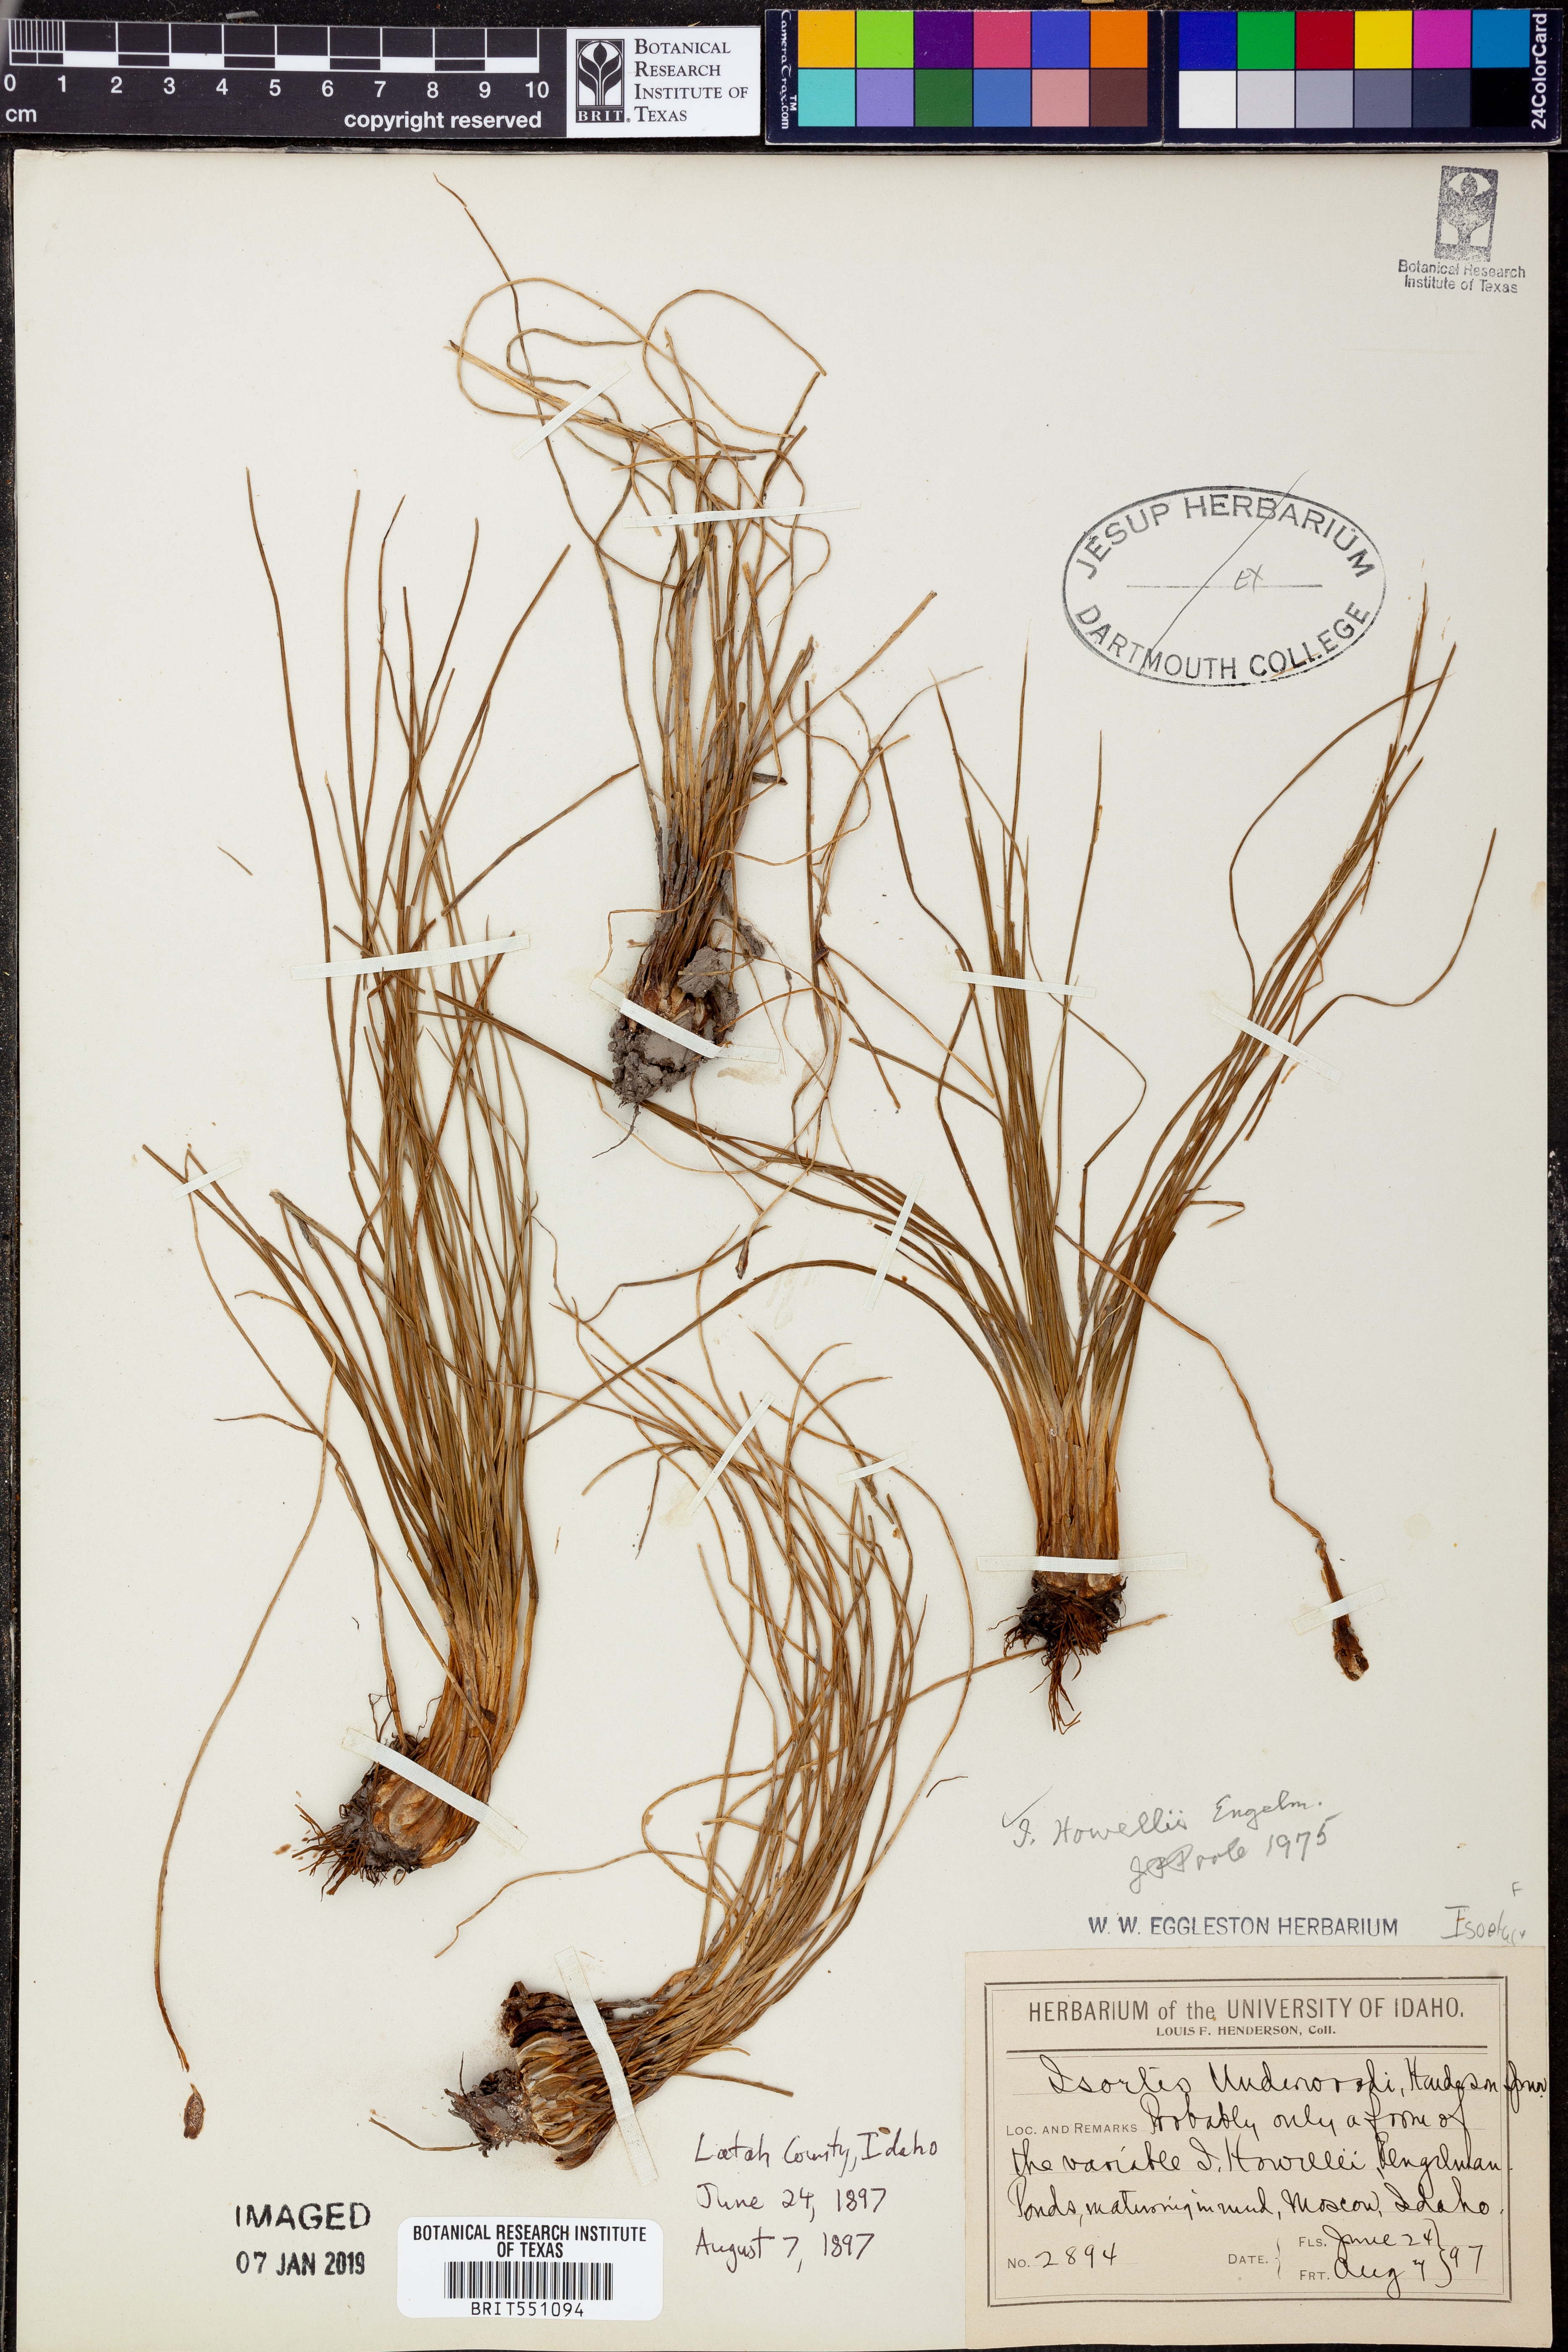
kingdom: Plantae
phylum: Tracheophyta
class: Lycopodiopsida
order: Isoetales
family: Isoetaceae
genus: Isoetes
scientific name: Isoetes howellii
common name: Howell's quillwort
